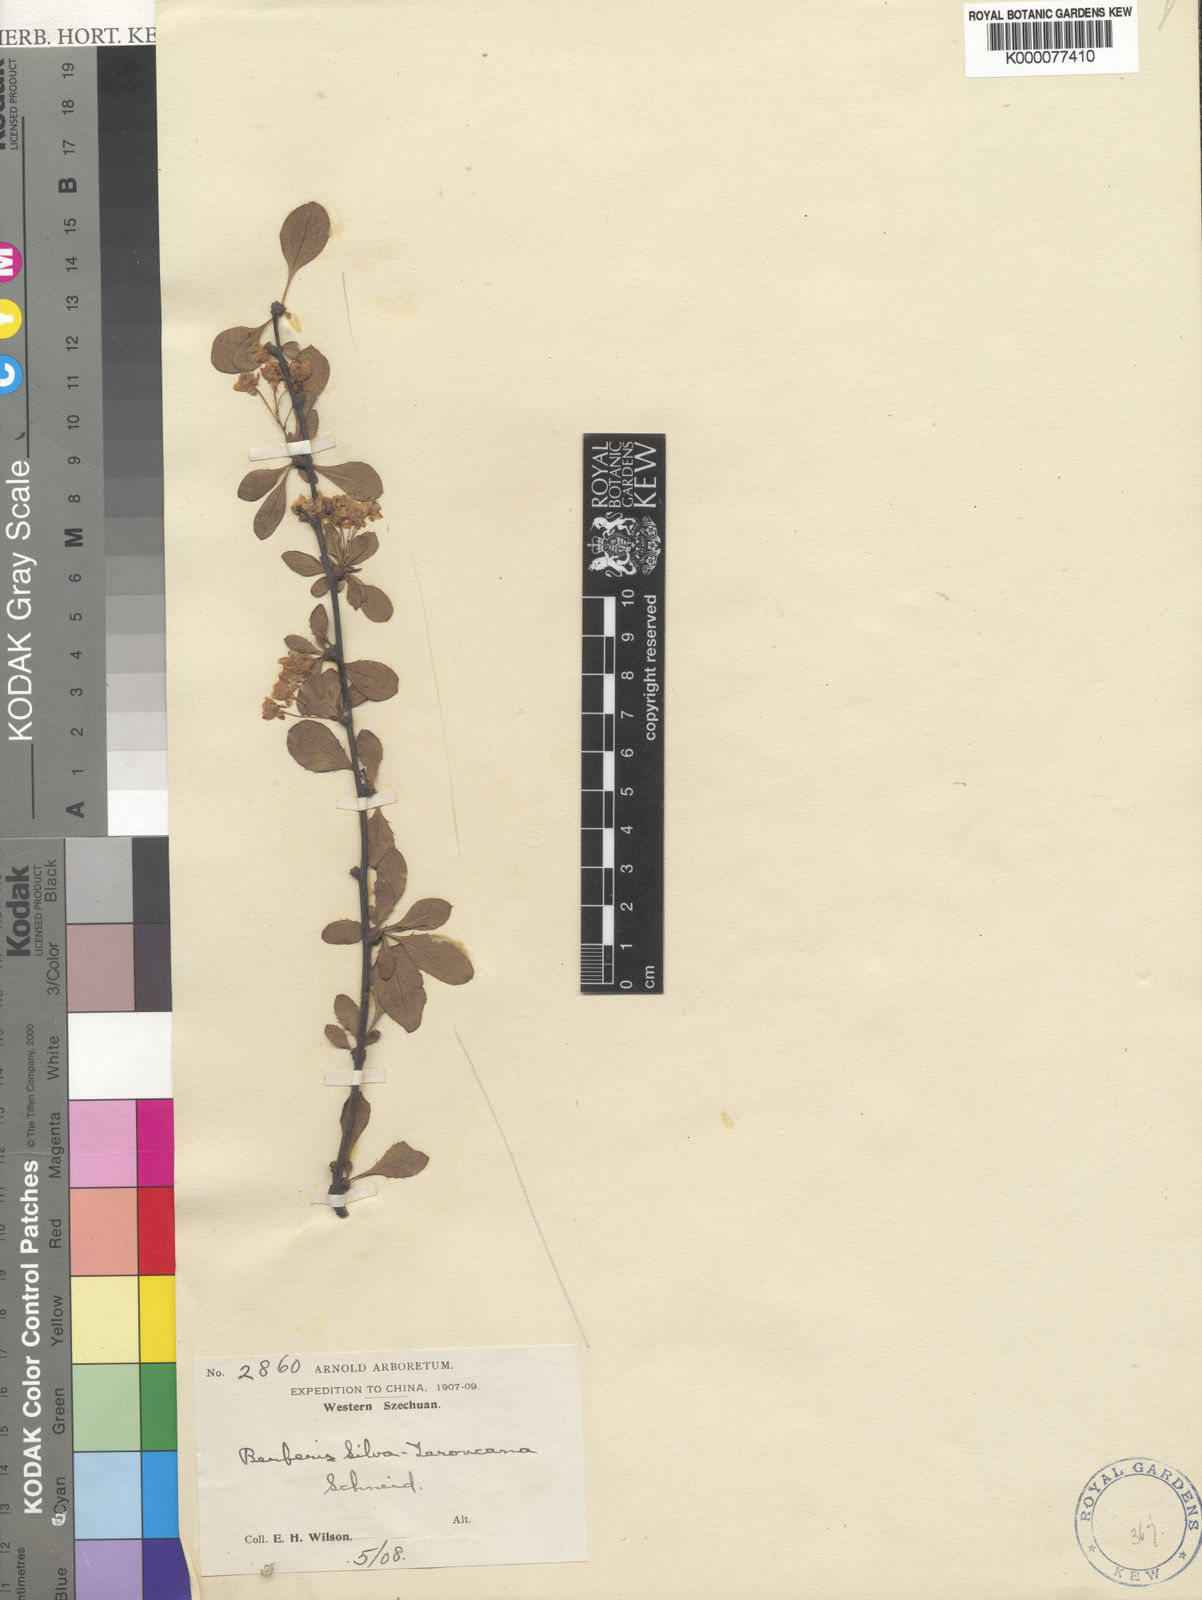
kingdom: Plantae
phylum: Tracheophyta
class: Magnoliopsida
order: Ranunculales
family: Berberidaceae
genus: Berberis
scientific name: Berberis silva-taroucana
